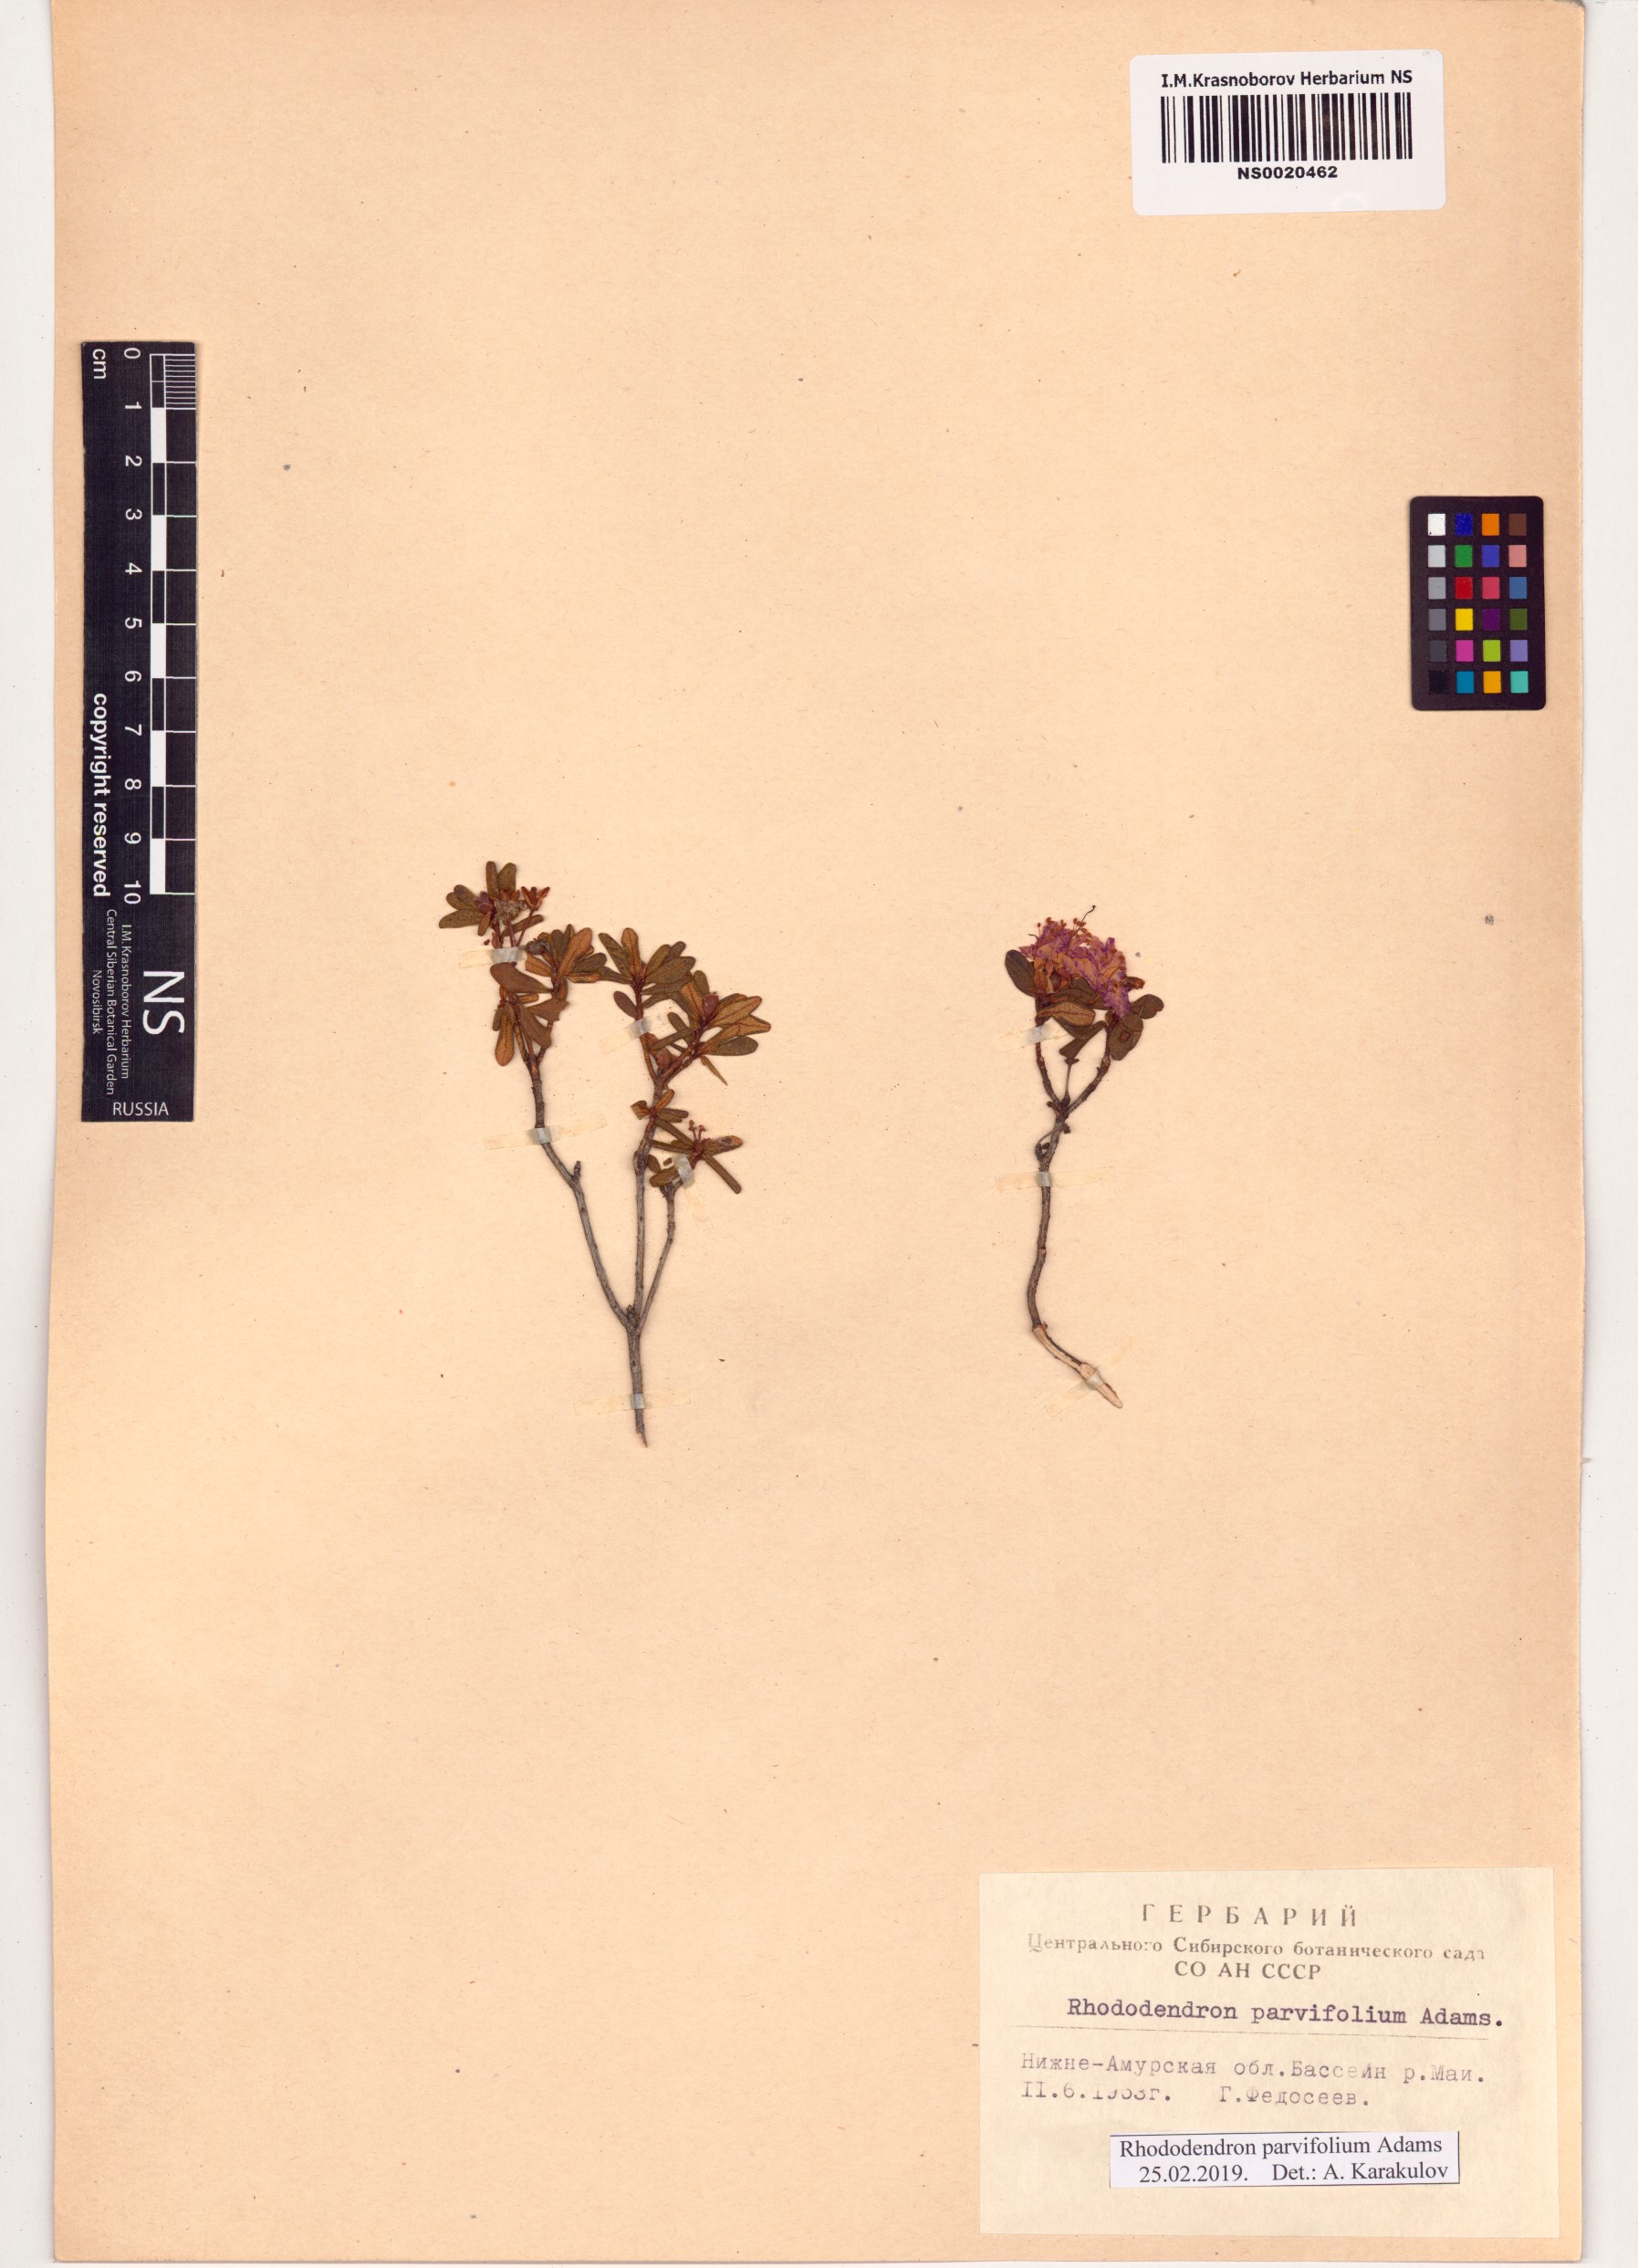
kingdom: Plantae
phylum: Tracheophyta
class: Magnoliopsida
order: Ericales
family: Ericaceae
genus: Rhododendron
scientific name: Rhododendron parvifolium
